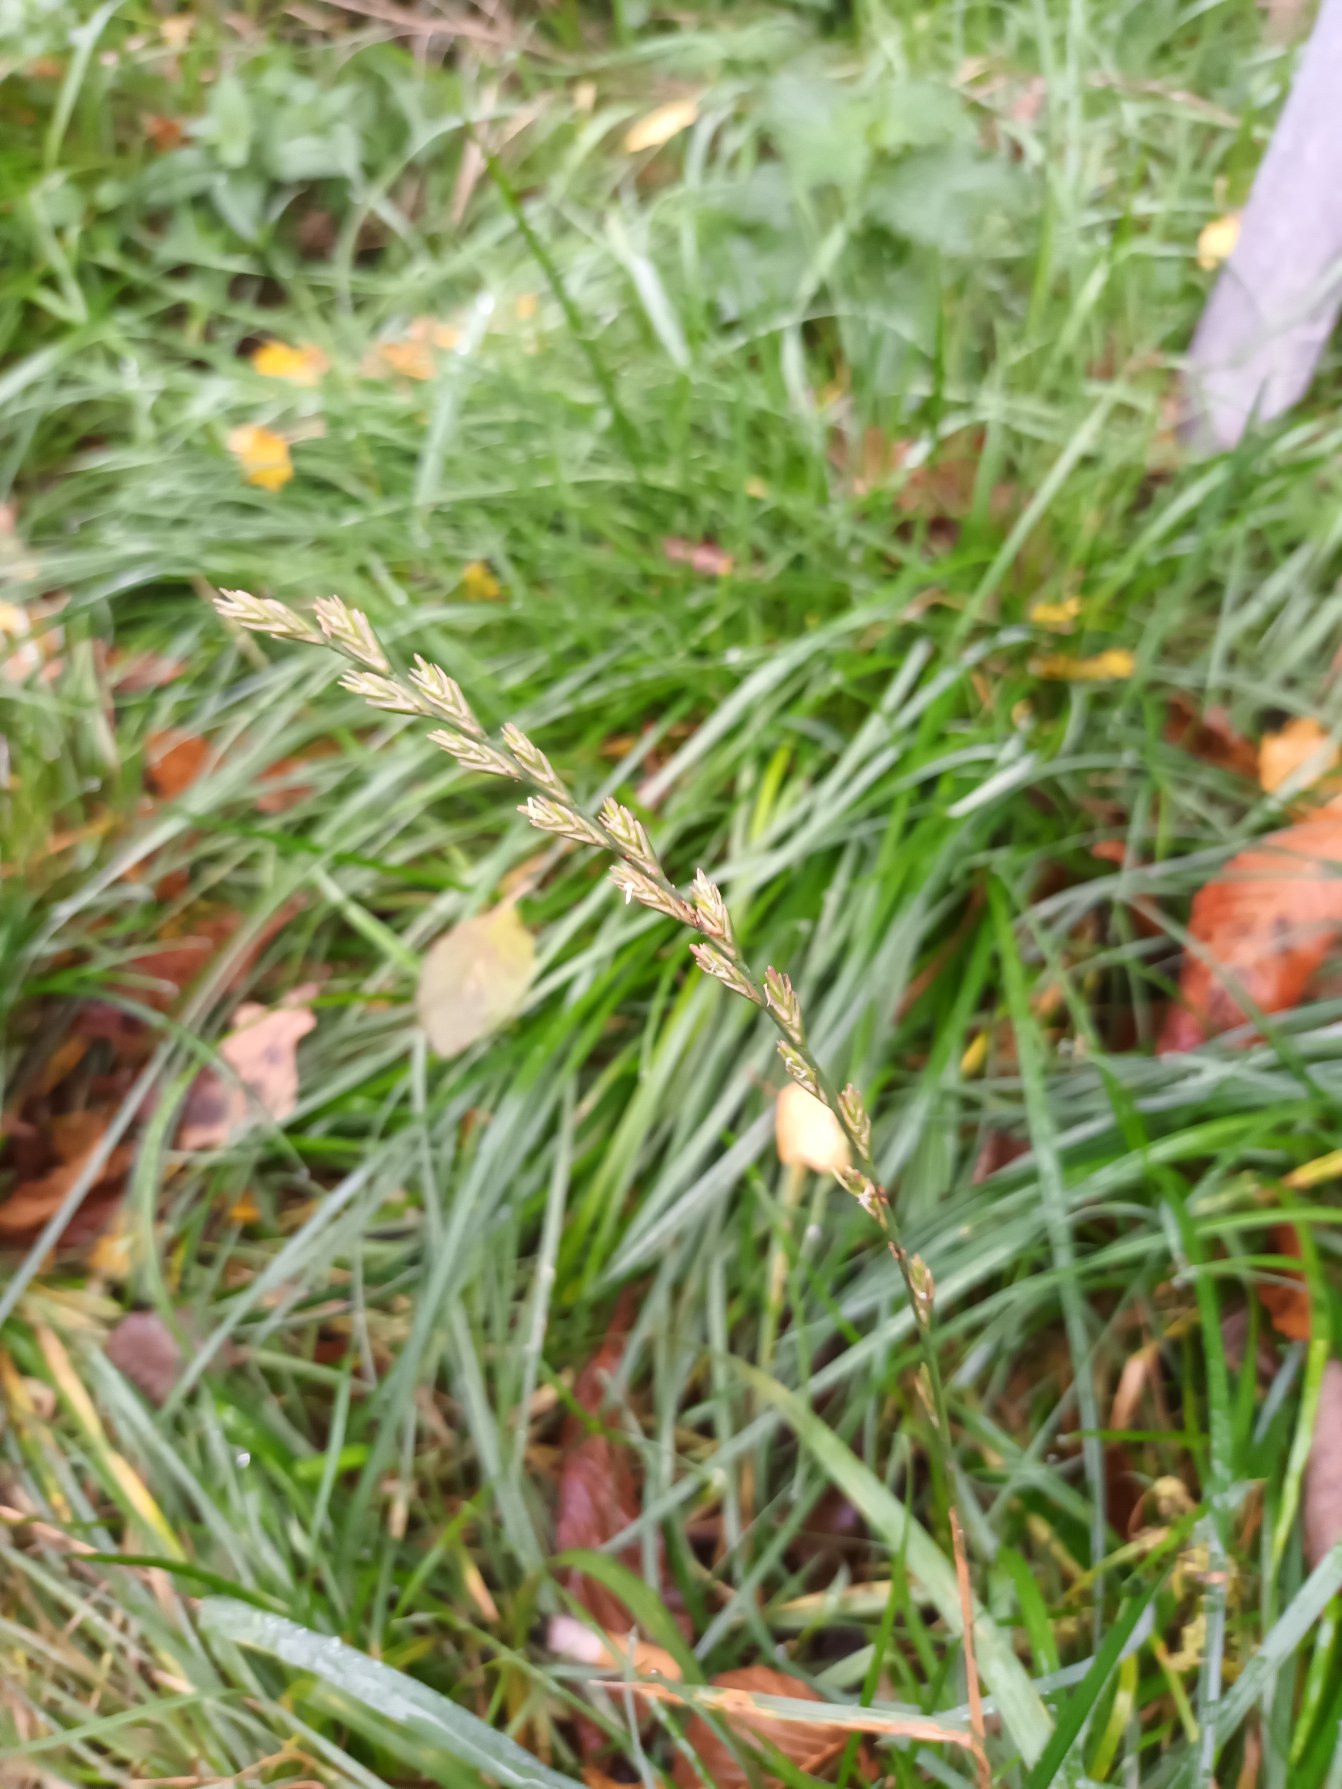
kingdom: Plantae
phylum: Tracheophyta
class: Liliopsida
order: Poales
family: Poaceae
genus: Lolium
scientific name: Lolium perenne
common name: Almindelig rajgræs
